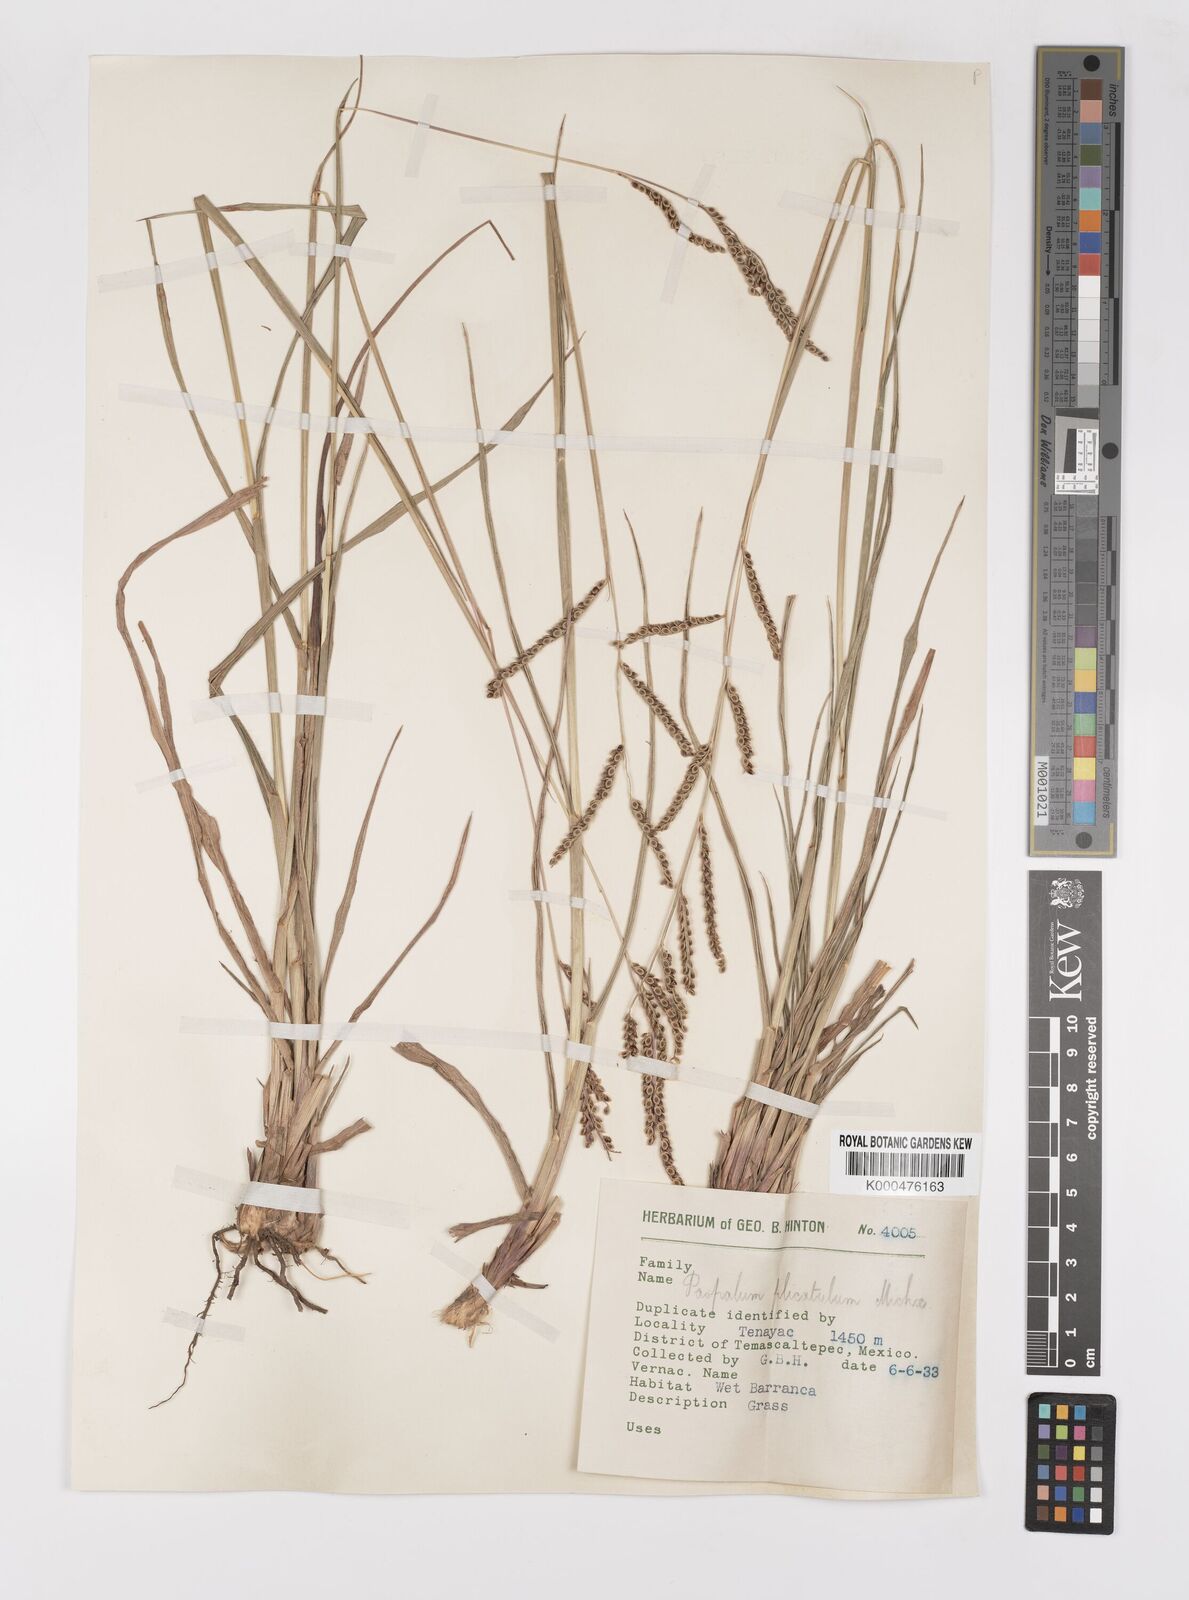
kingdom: Plantae
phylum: Tracheophyta
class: Liliopsida
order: Poales
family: Poaceae
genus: Paspalum
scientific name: Paspalum plicatulum
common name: Top paspalum
